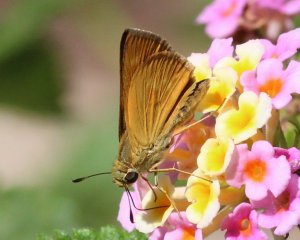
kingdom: Animalia
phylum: Arthropoda
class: Insecta
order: Lepidoptera
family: Hesperiidae
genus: Wallengrenia
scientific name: Wallengrenia otho
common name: Southern Broken-Dash
